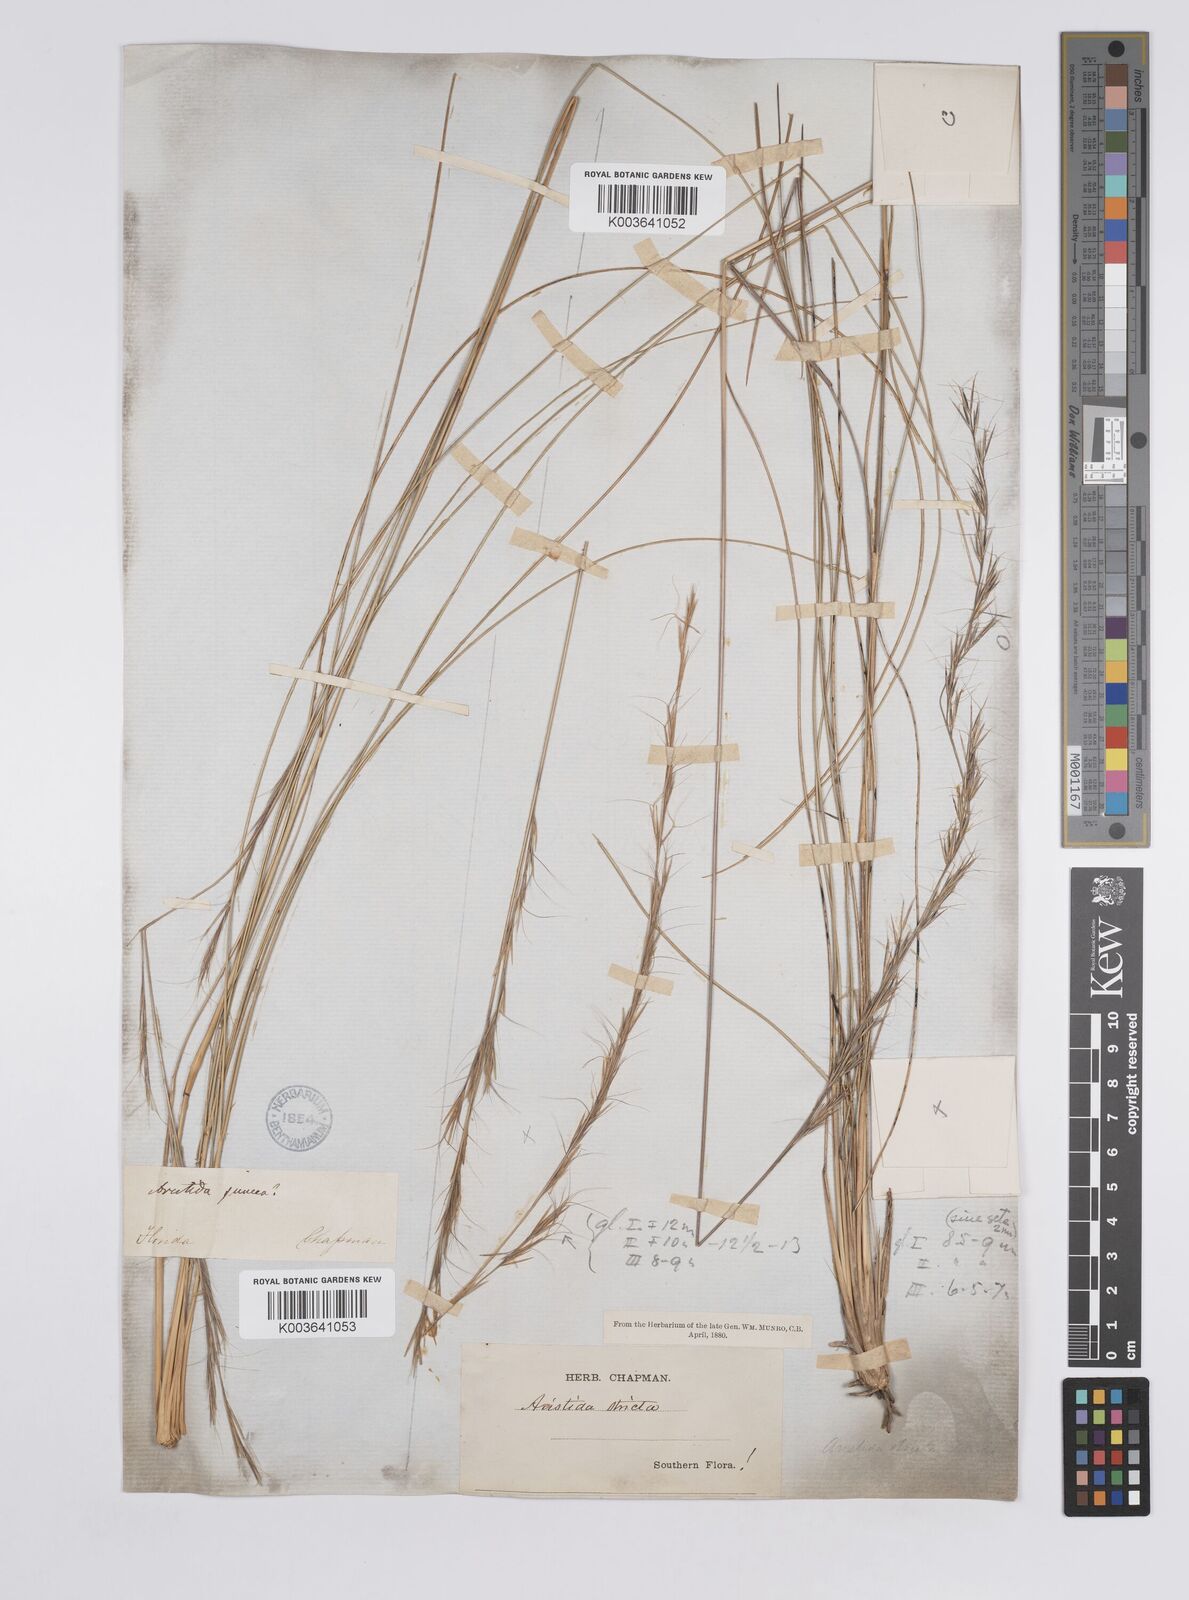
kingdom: Plantae
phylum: Tracheophyta
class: Liliopsida
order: Poales
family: Poaceae
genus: Aristida
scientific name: Aristida stricta
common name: Pineland three-awn
